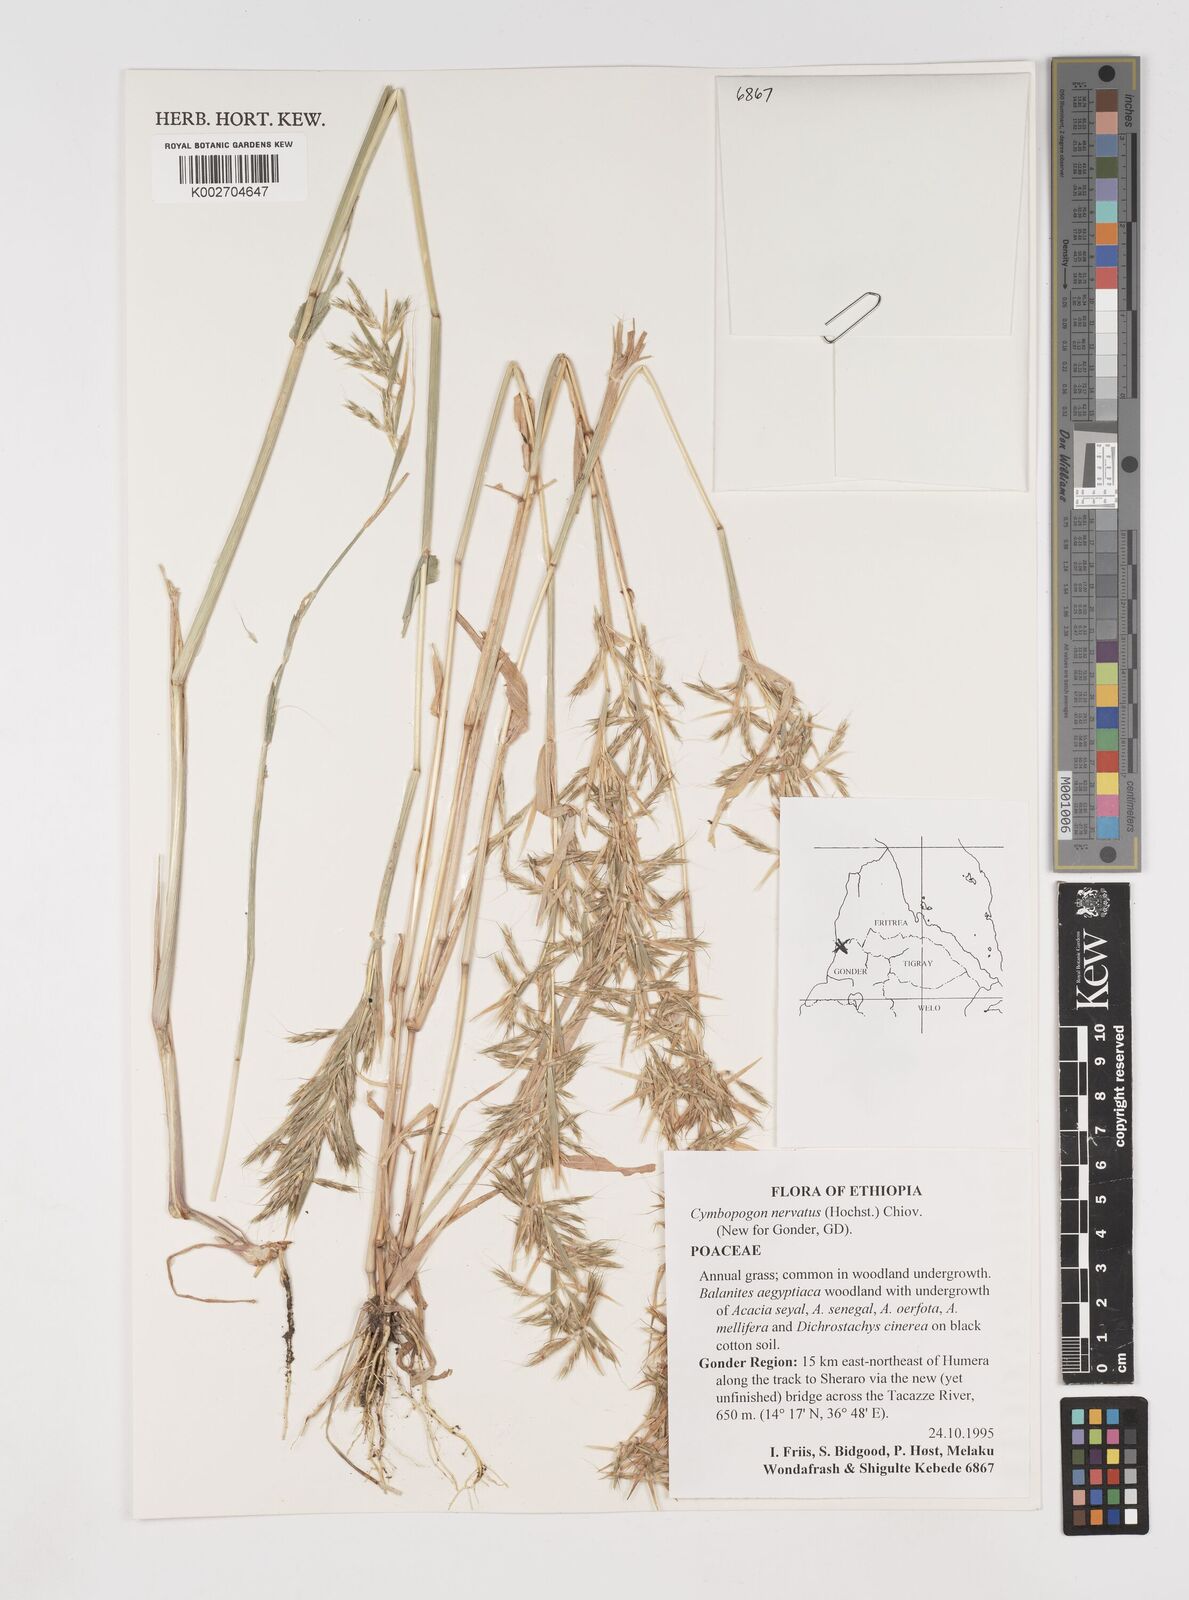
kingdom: Plantae
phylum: Tracheophyta
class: Liliopsida
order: Poales
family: Poaceae
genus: Cymbopogon
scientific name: Cymbopogon nervatus
